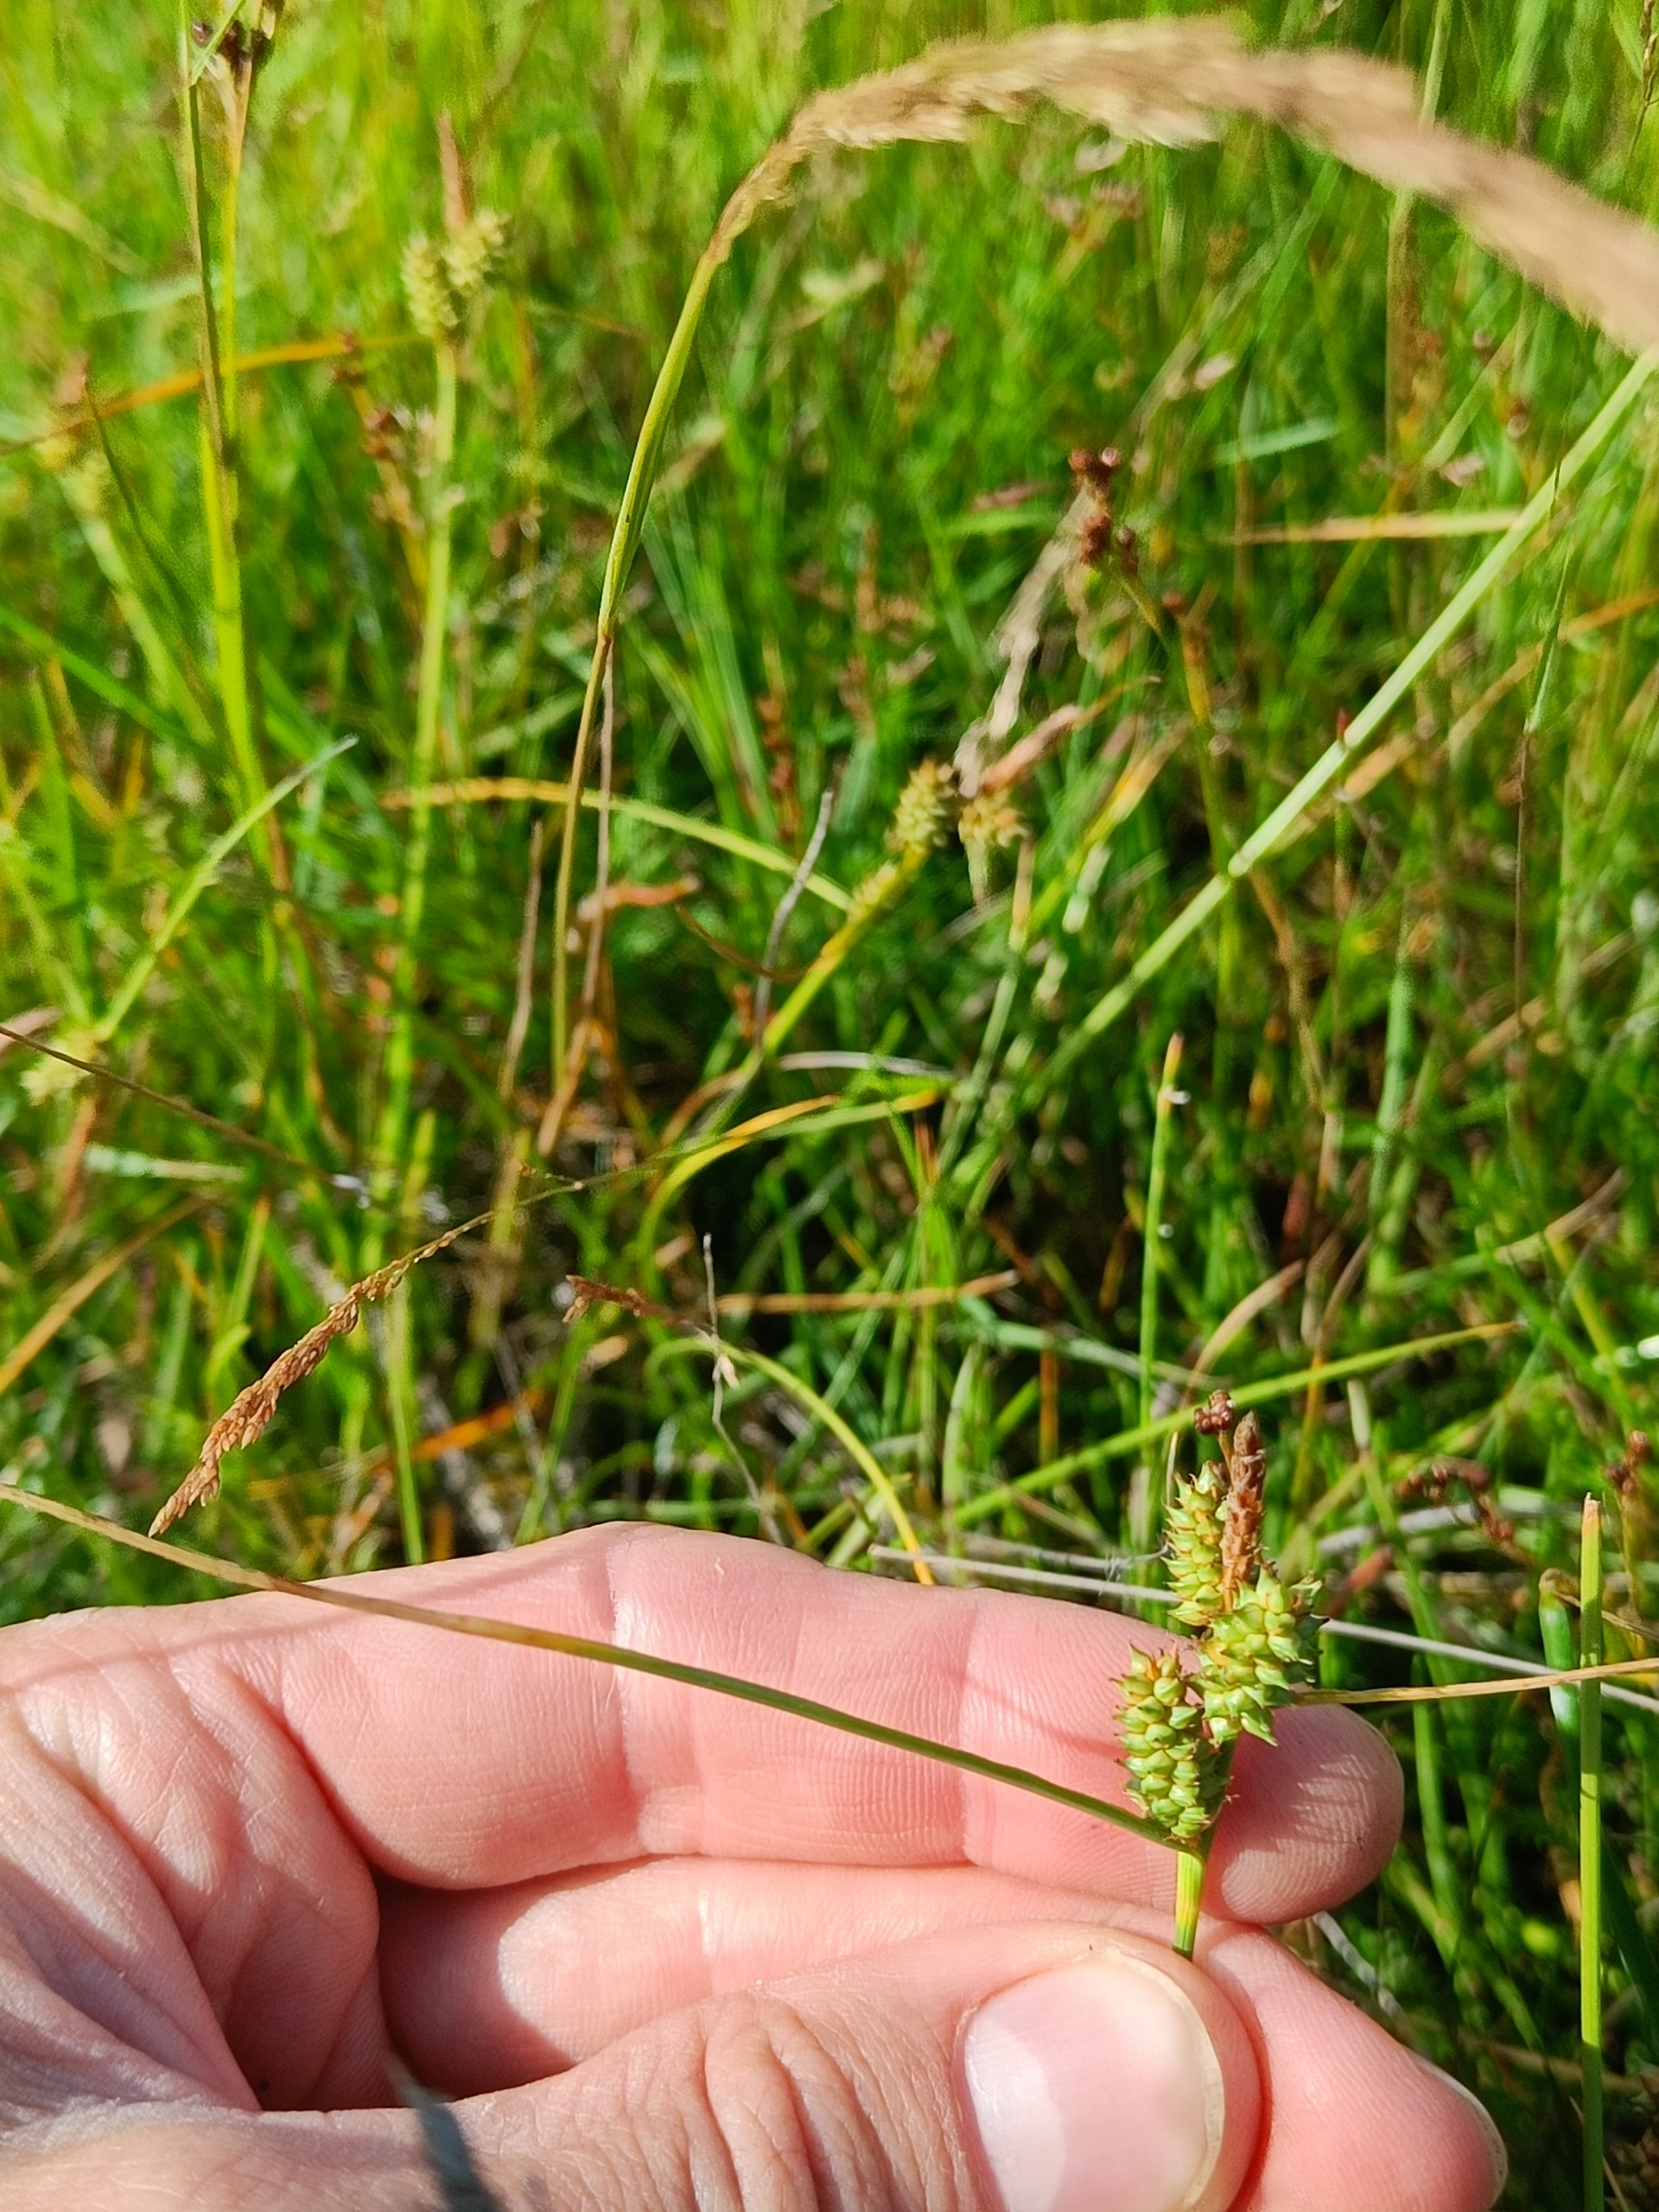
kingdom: Plantae
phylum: Tracheophyta
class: Liliopsida
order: Poales
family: Cyperaceae
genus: Carex
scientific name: Carex extensa
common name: Udspilet star
